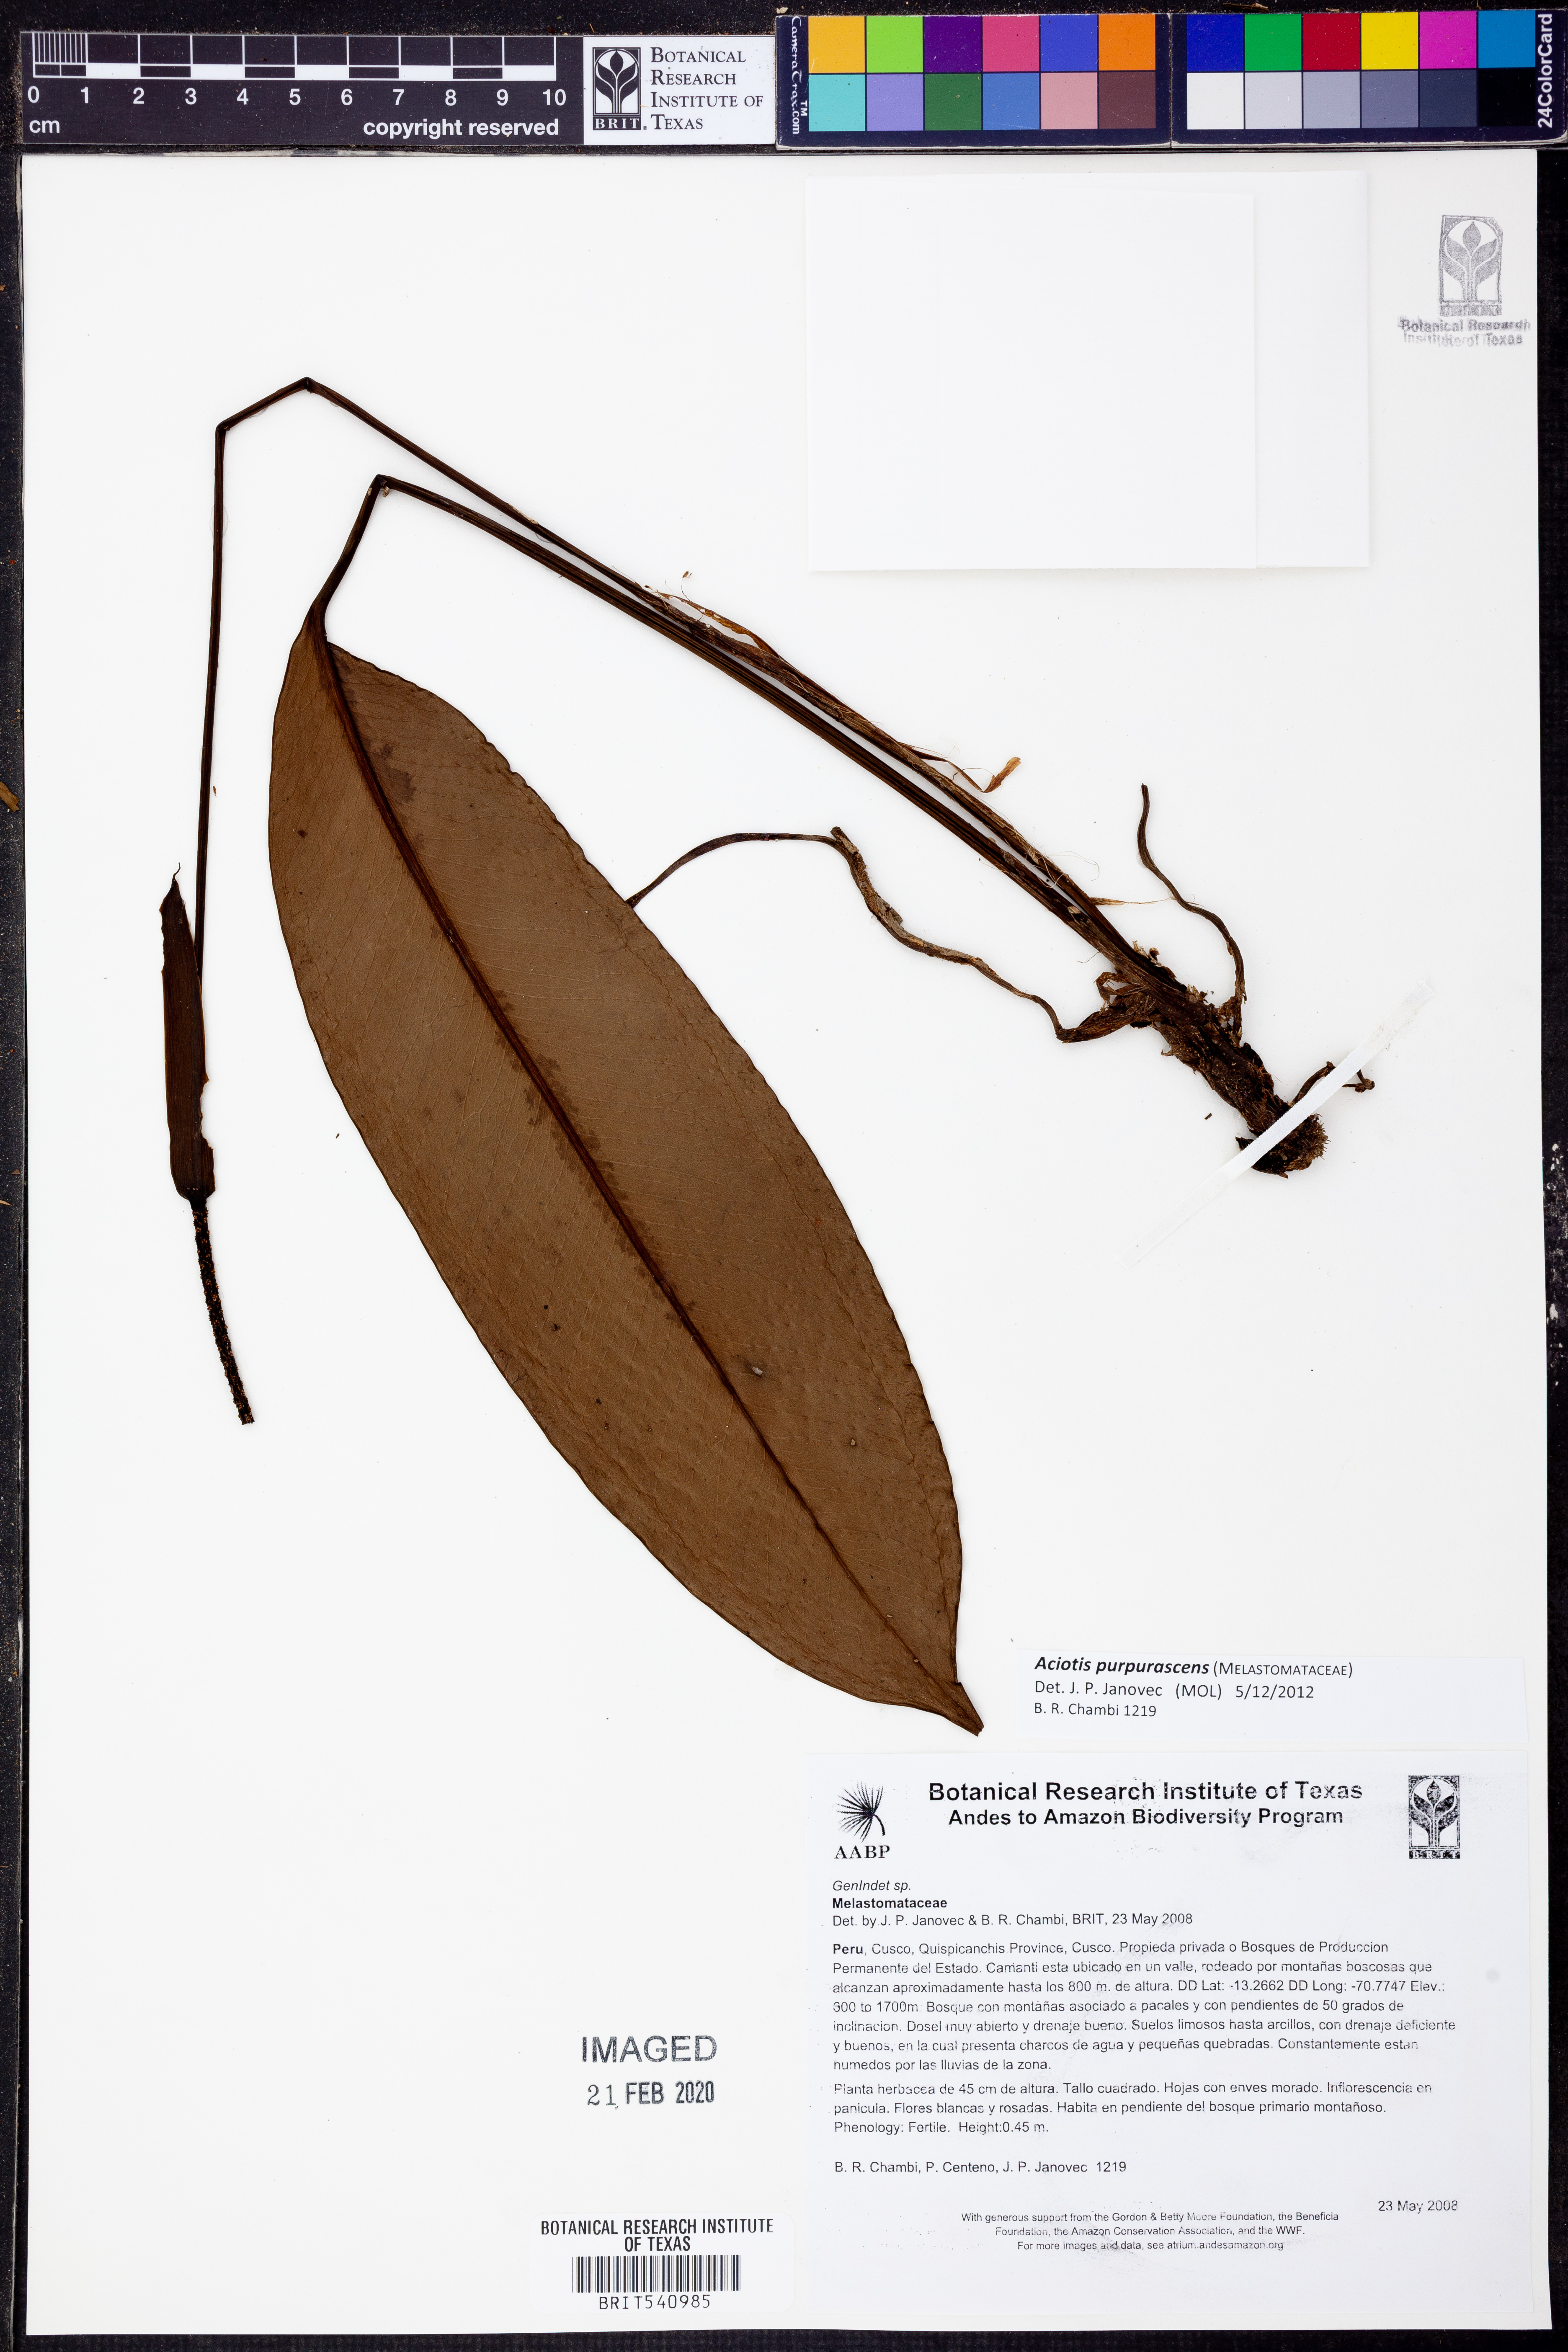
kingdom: Plantae
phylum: Tracheophyta
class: Magnoliopsida
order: Myrtales
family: Melastomataceae
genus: Aciotis
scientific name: Aciotis purpurascens
